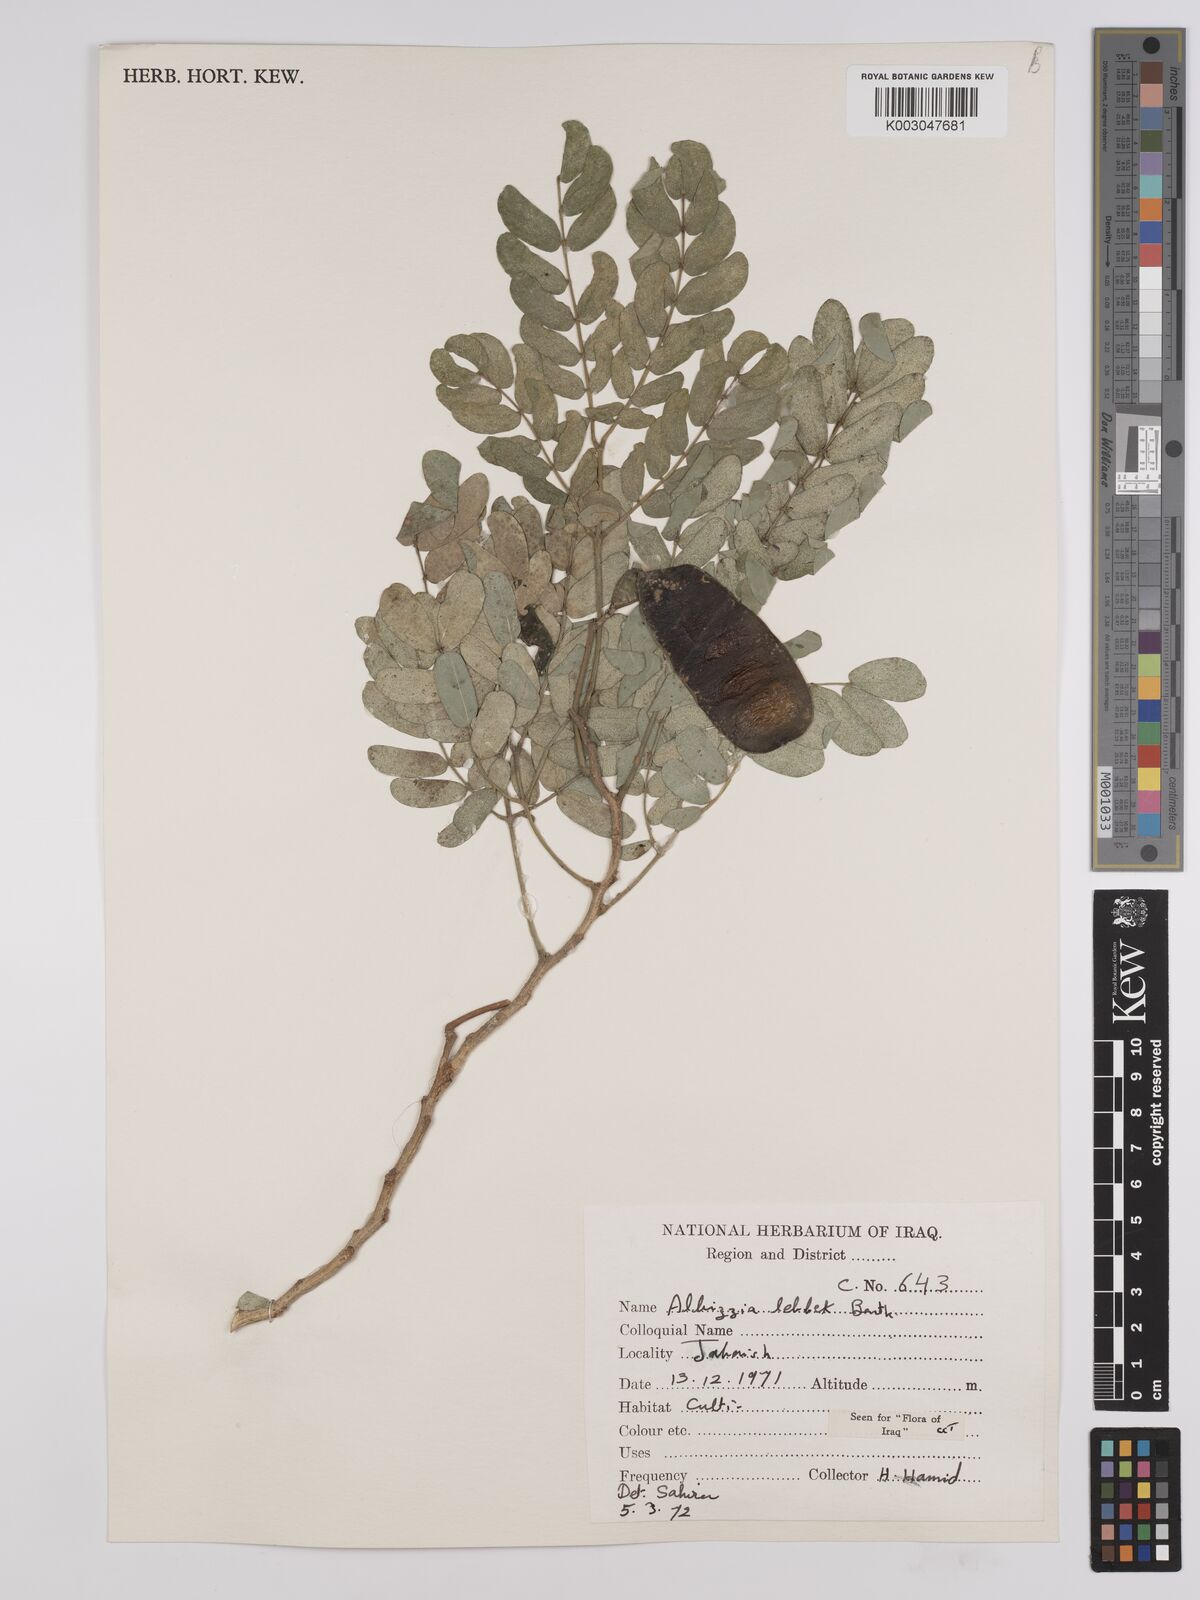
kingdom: Plantae
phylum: Tracheophyta
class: Magnoliopsida
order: Fabales
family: Fabaceae
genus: Albizia
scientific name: Albizia lebbeck
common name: Woman's tongue
